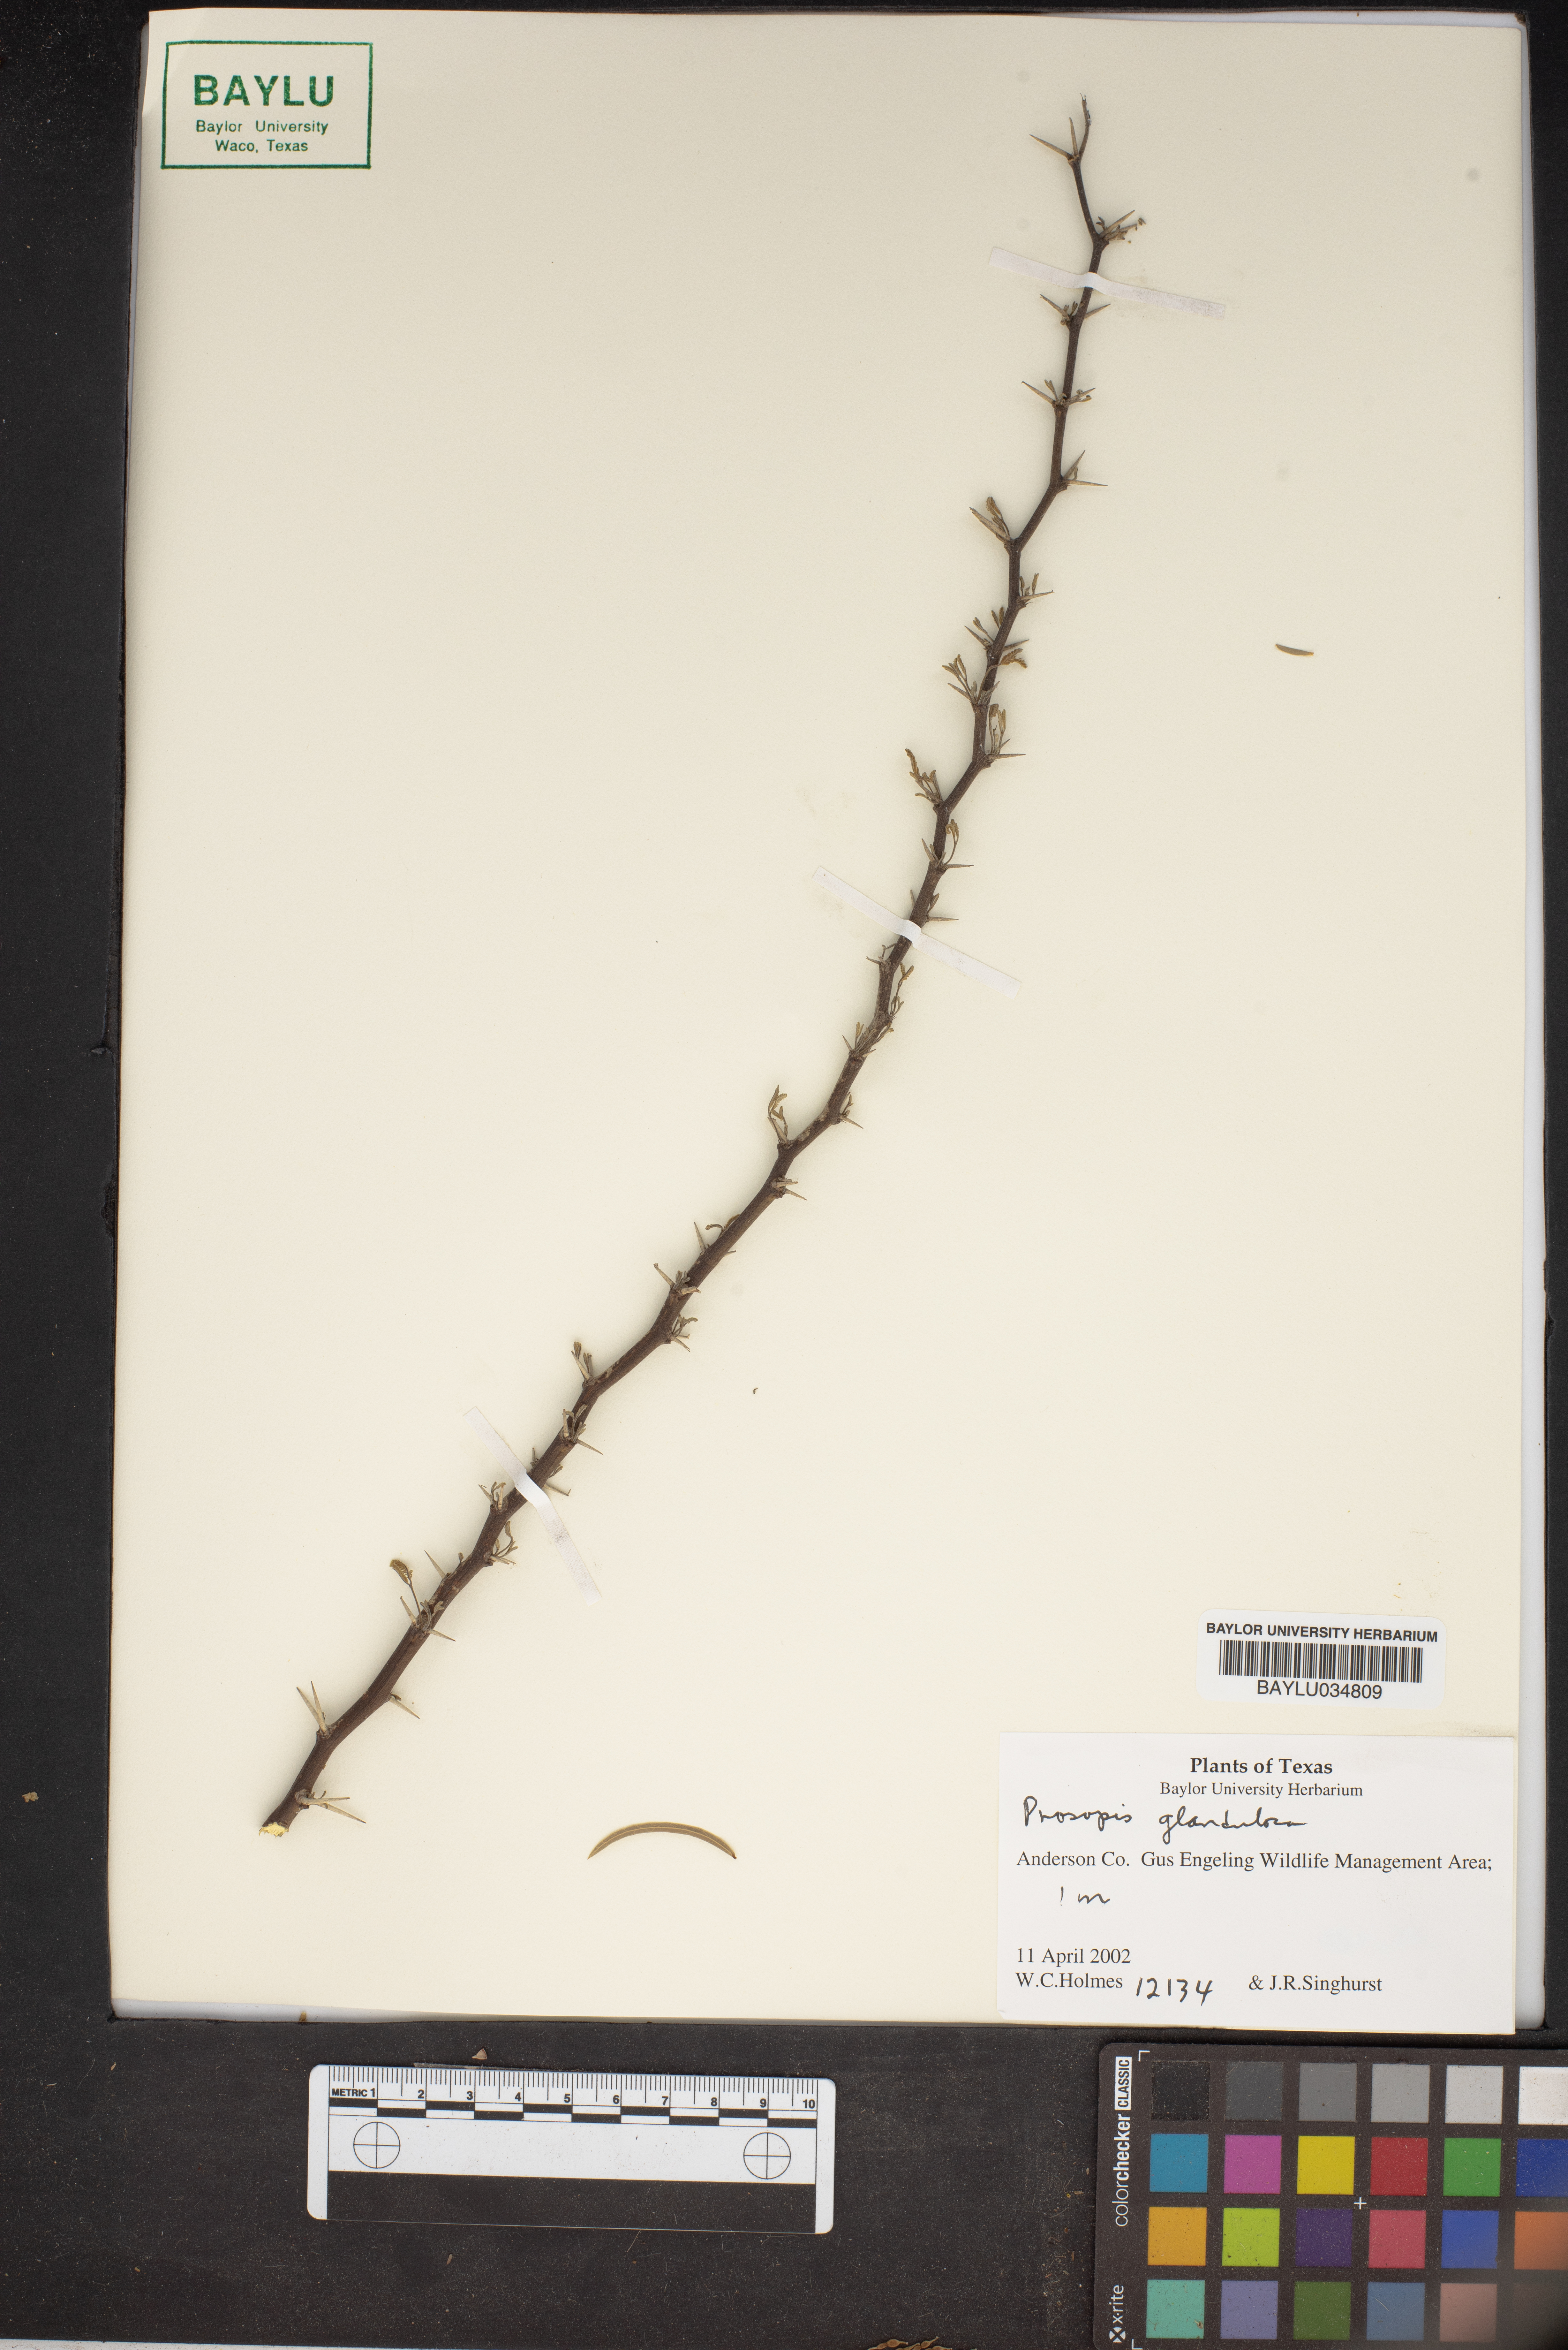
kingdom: Plantae
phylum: Tracheophyta
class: Magnoliopsida
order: Fabales
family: Fabaceae
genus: Prosopis
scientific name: Prosopis glandulosa
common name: Honey mesquite
